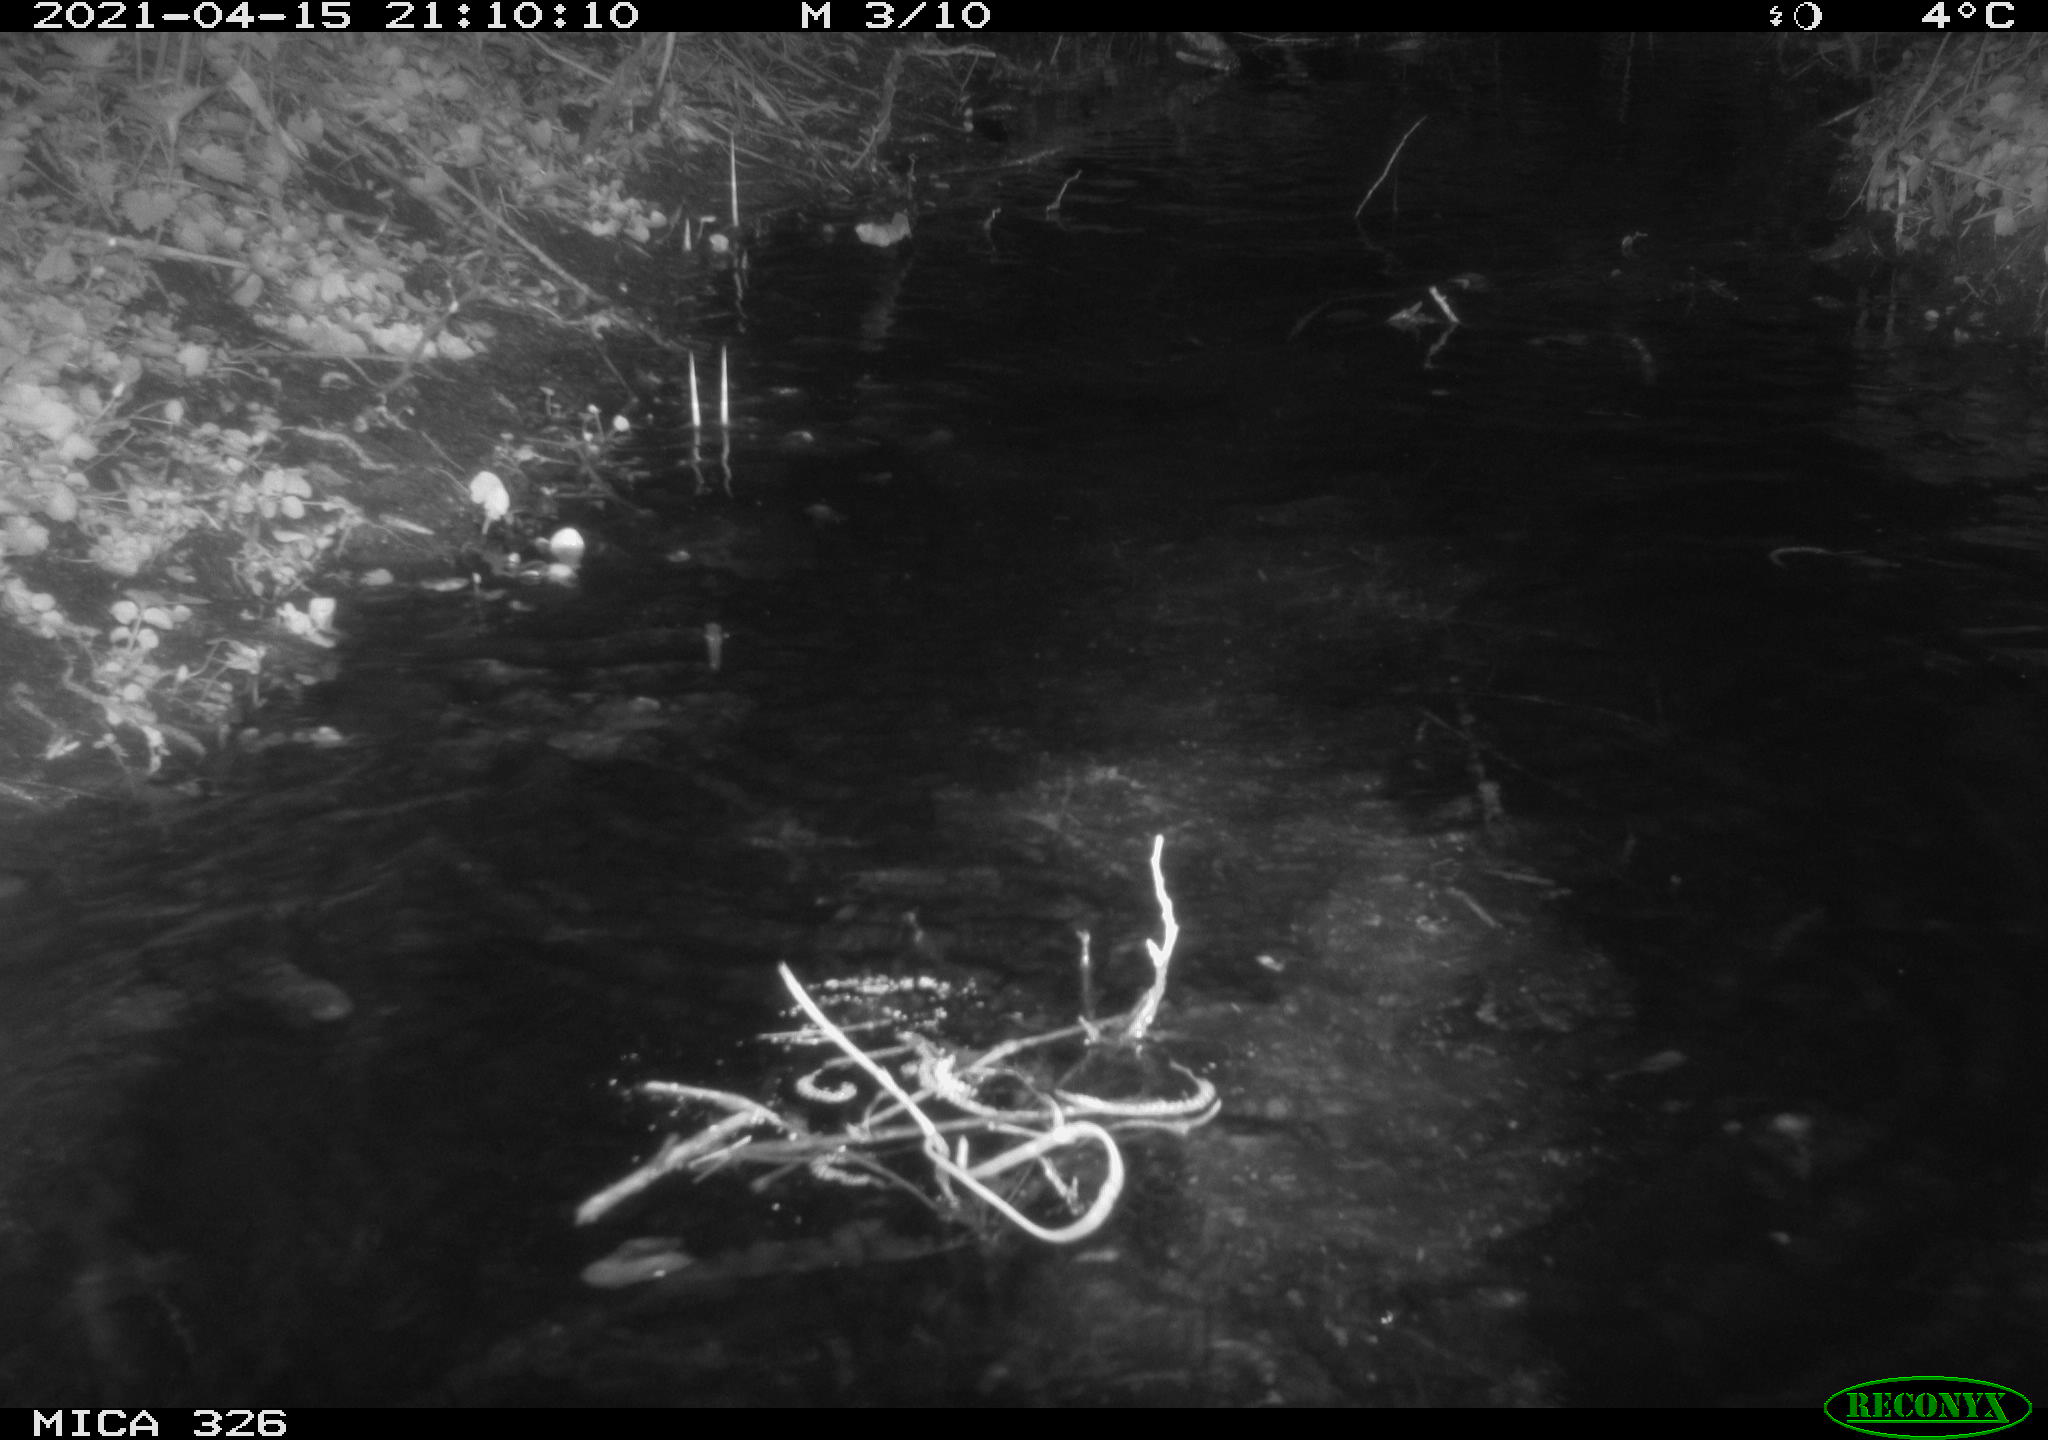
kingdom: Animalia
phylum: Chordata
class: Mammalia
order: Carnivora
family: Mustelidae
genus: Lutra
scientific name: Lutra lutra
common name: European otter
